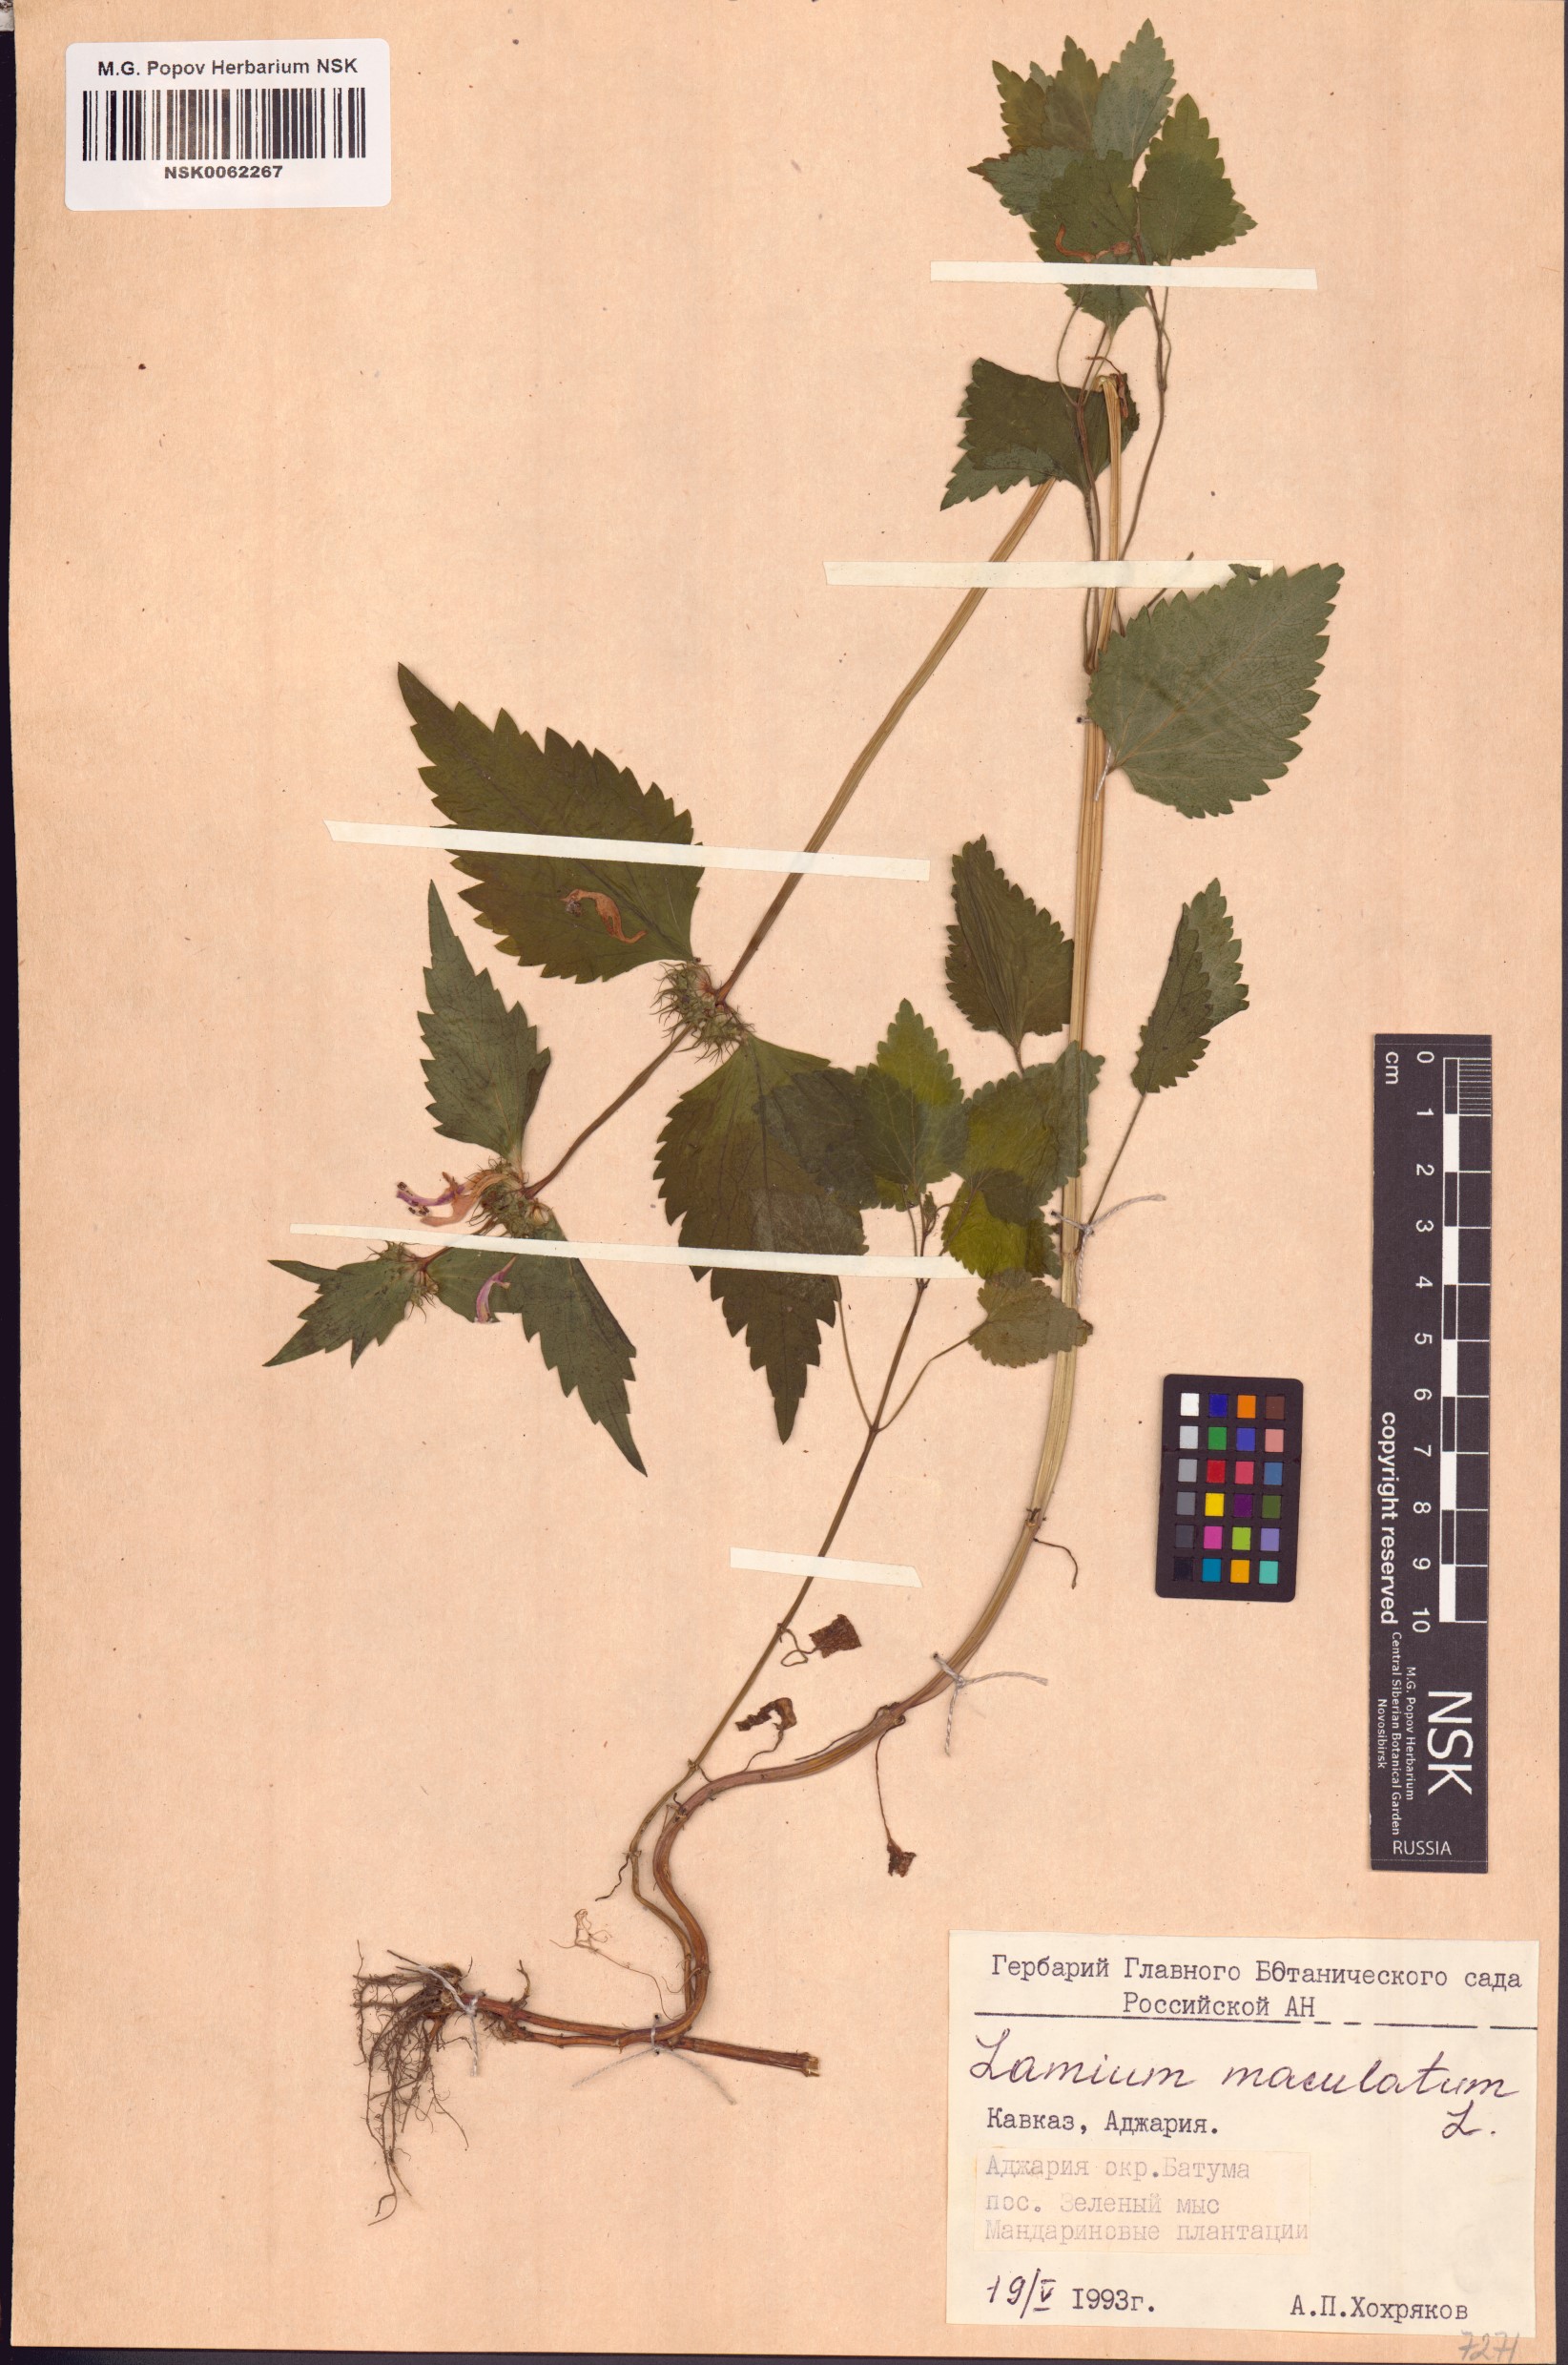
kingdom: Plantae
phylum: Tracheophyta
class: Magnoliopsida
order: Lamiales
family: Lamiaceae
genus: Lamium
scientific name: Lamium maculatum
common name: Spotted dead-nettle
